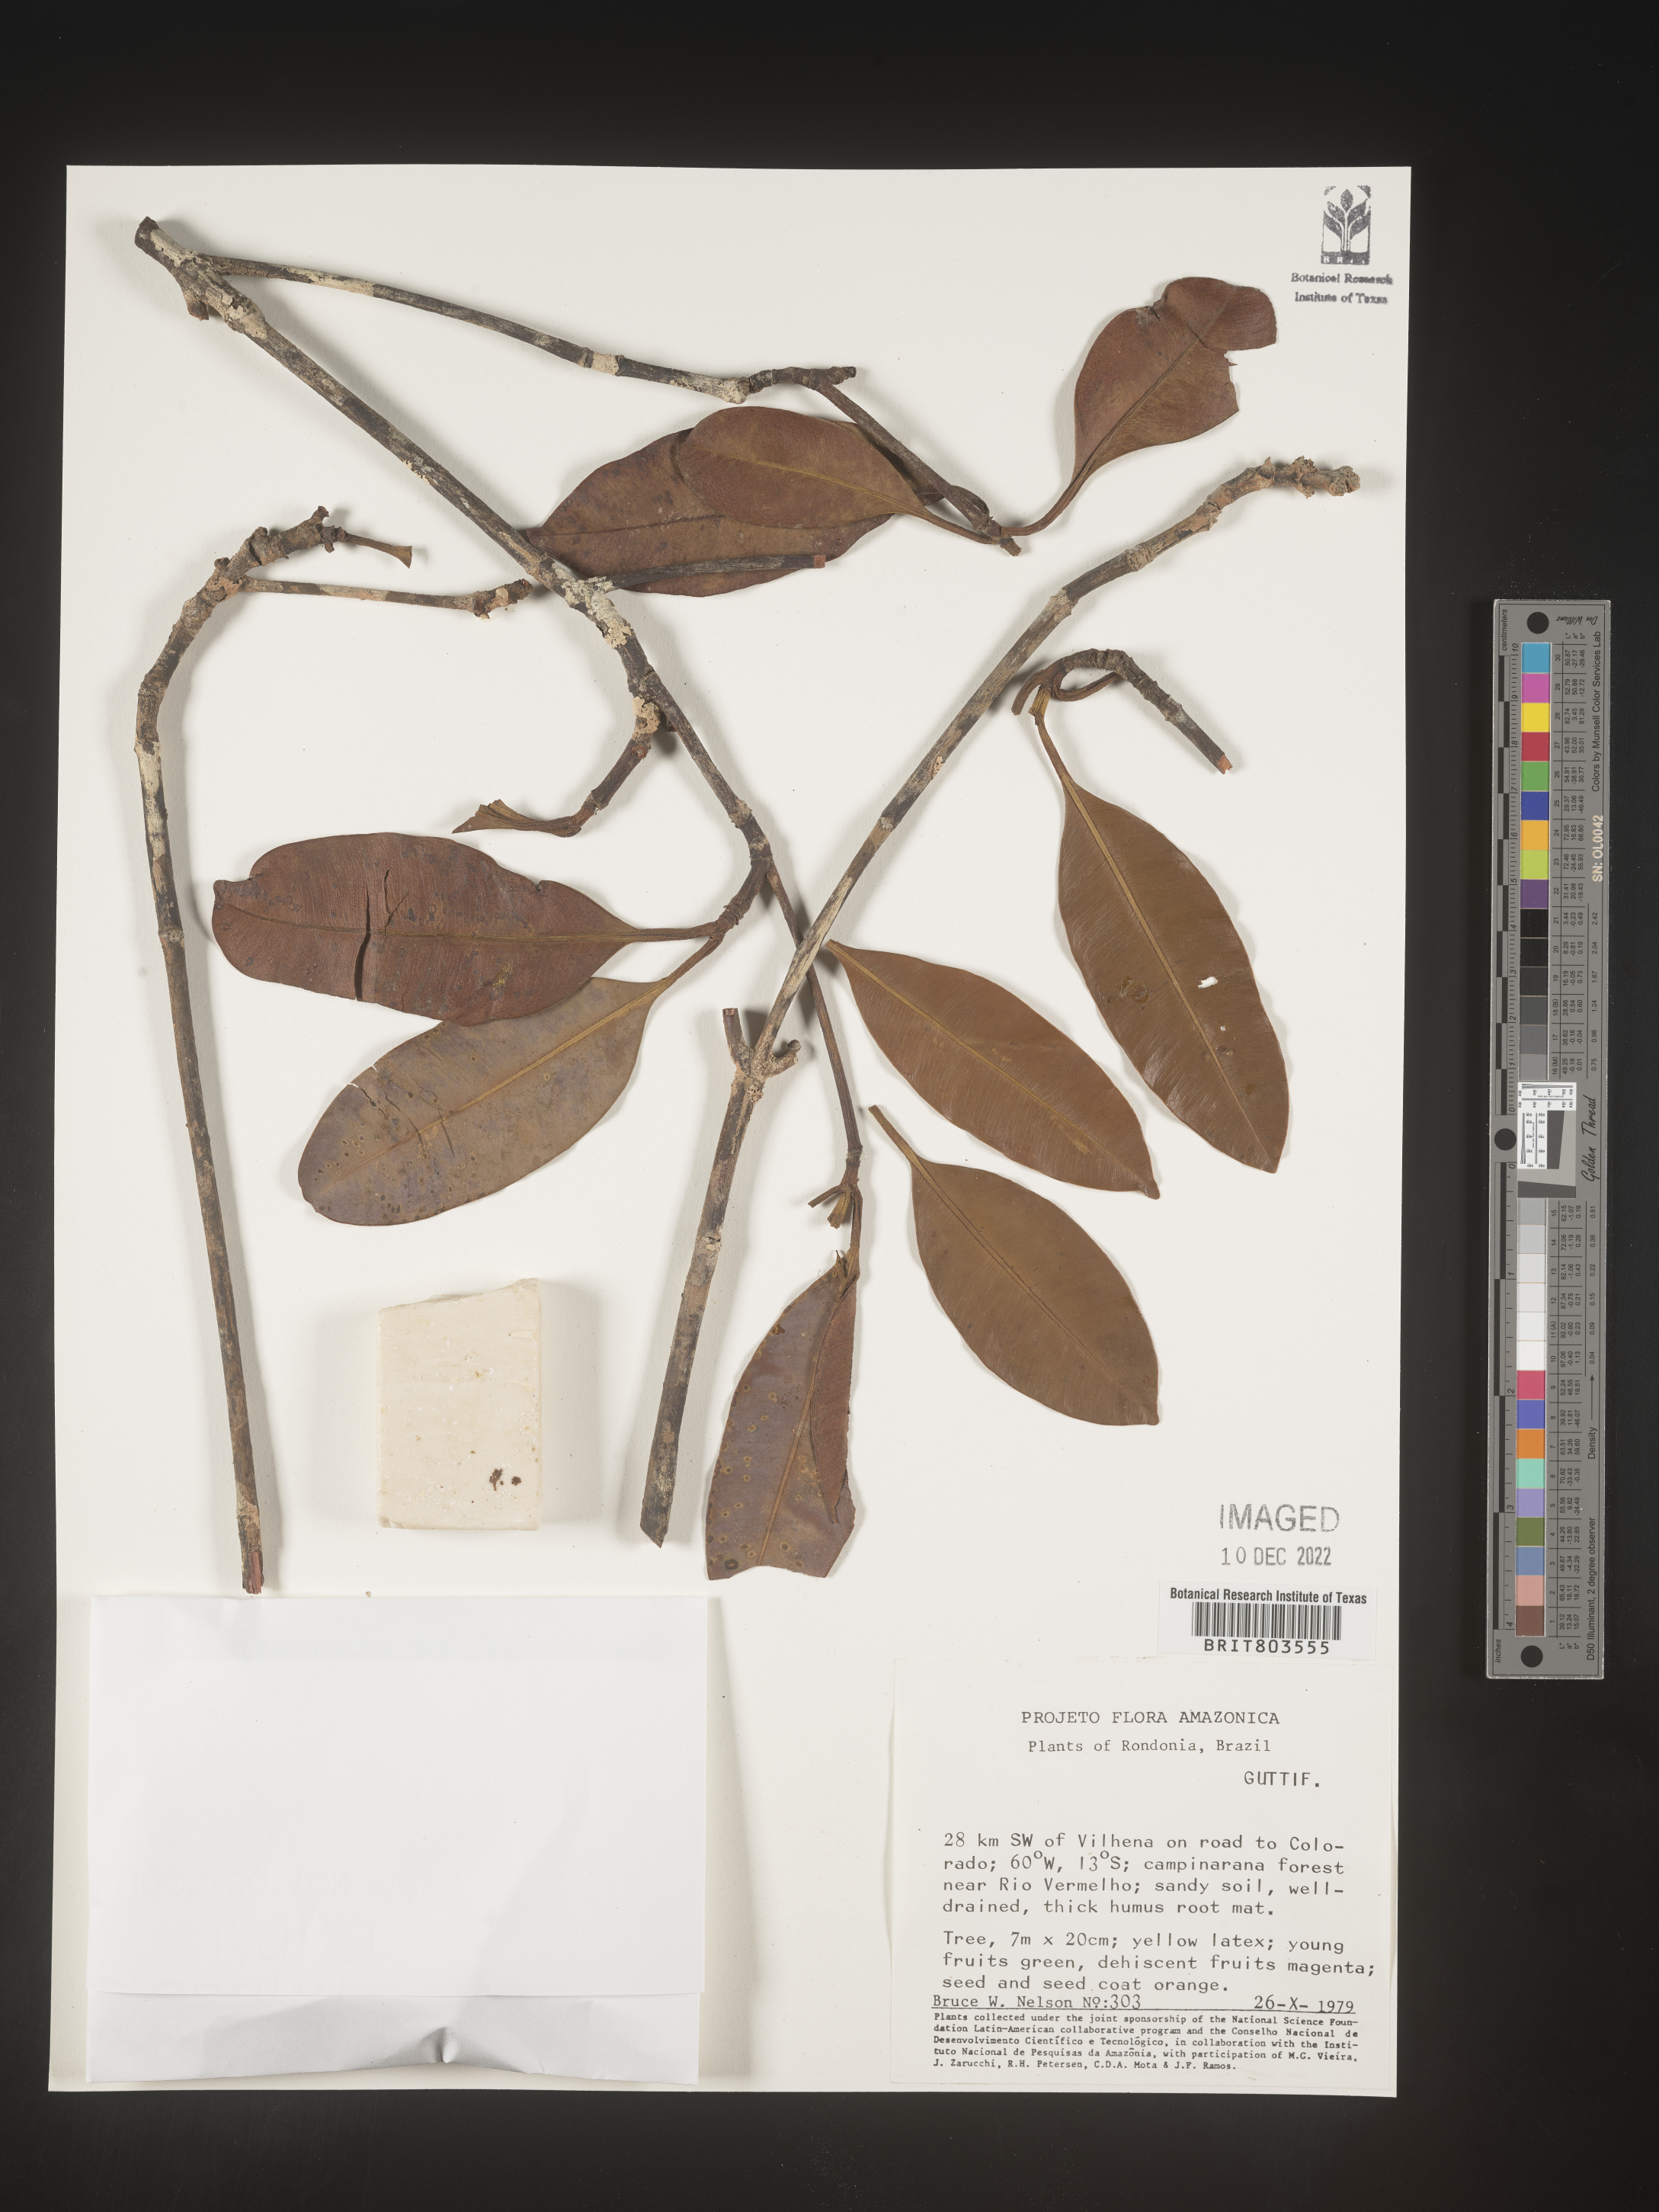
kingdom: Plantae
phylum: Tracheophyta
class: Magnoliopsida
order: Malpighiales
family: Clusiaceae
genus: Tovomita
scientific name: Tovomita
